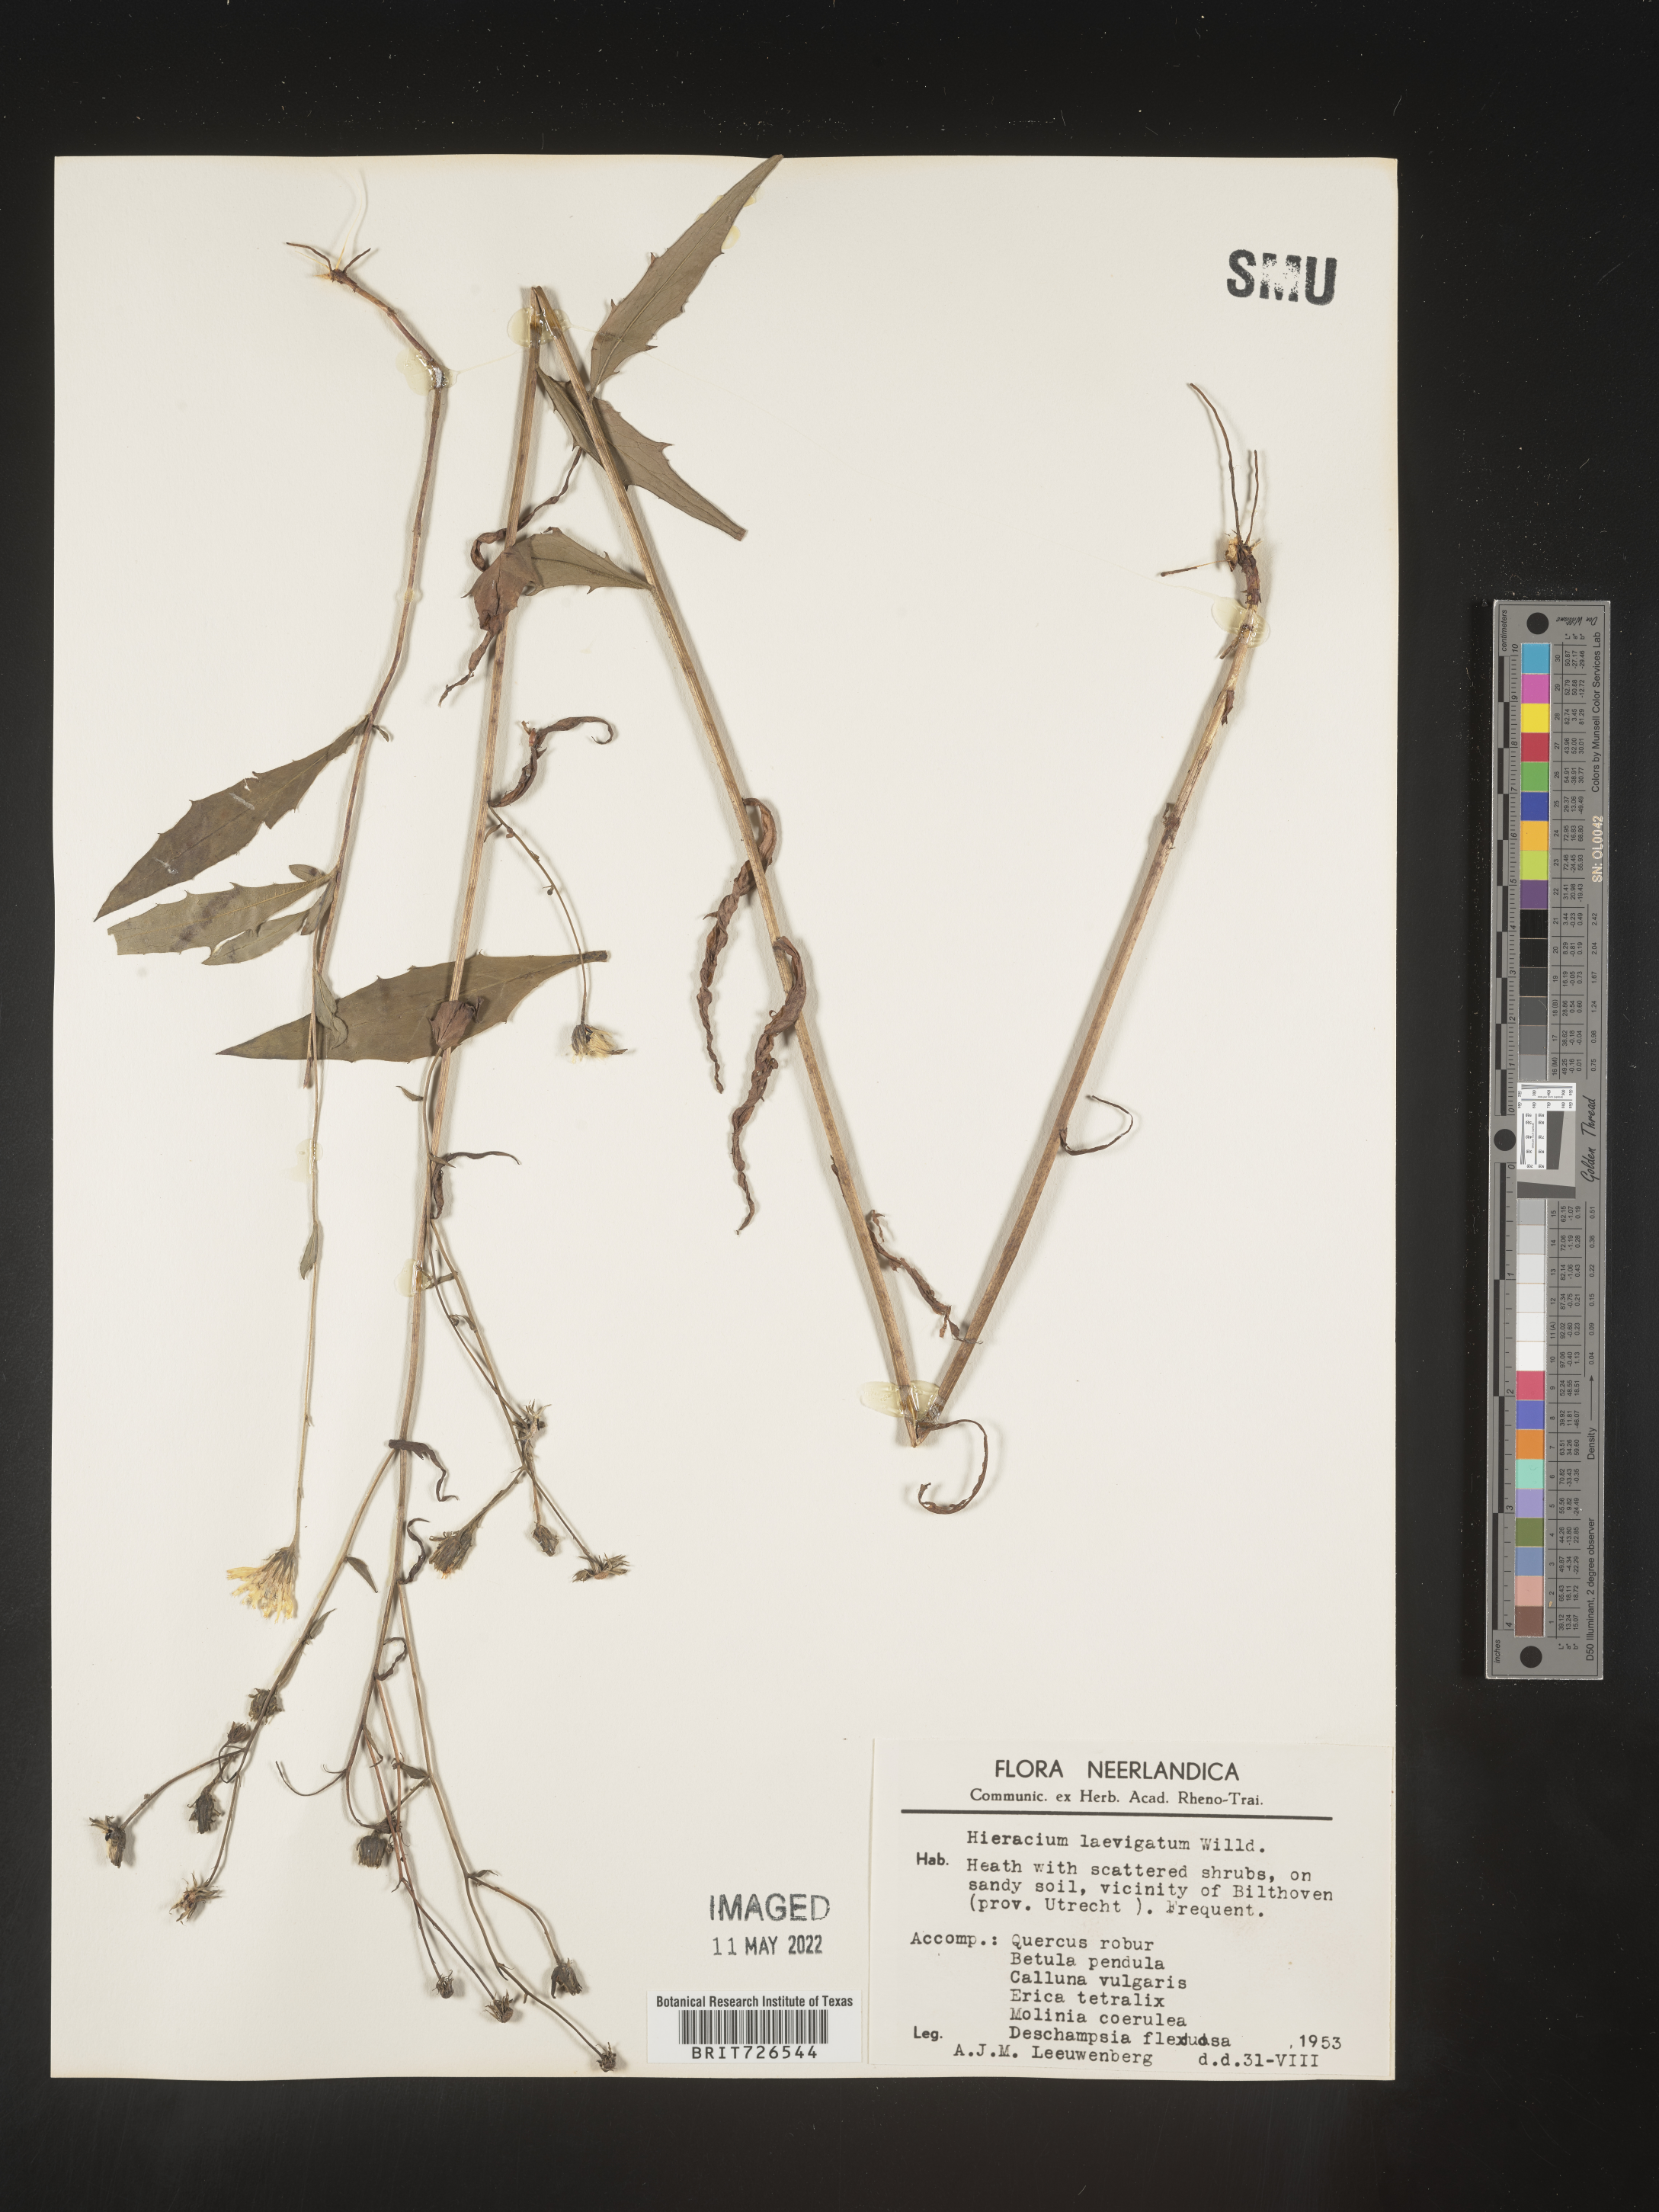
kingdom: Plantae
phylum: Tracheophyta
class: Magnoliopsida
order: Asterales
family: Asteraceae
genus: Hieracium
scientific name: Hieracium
